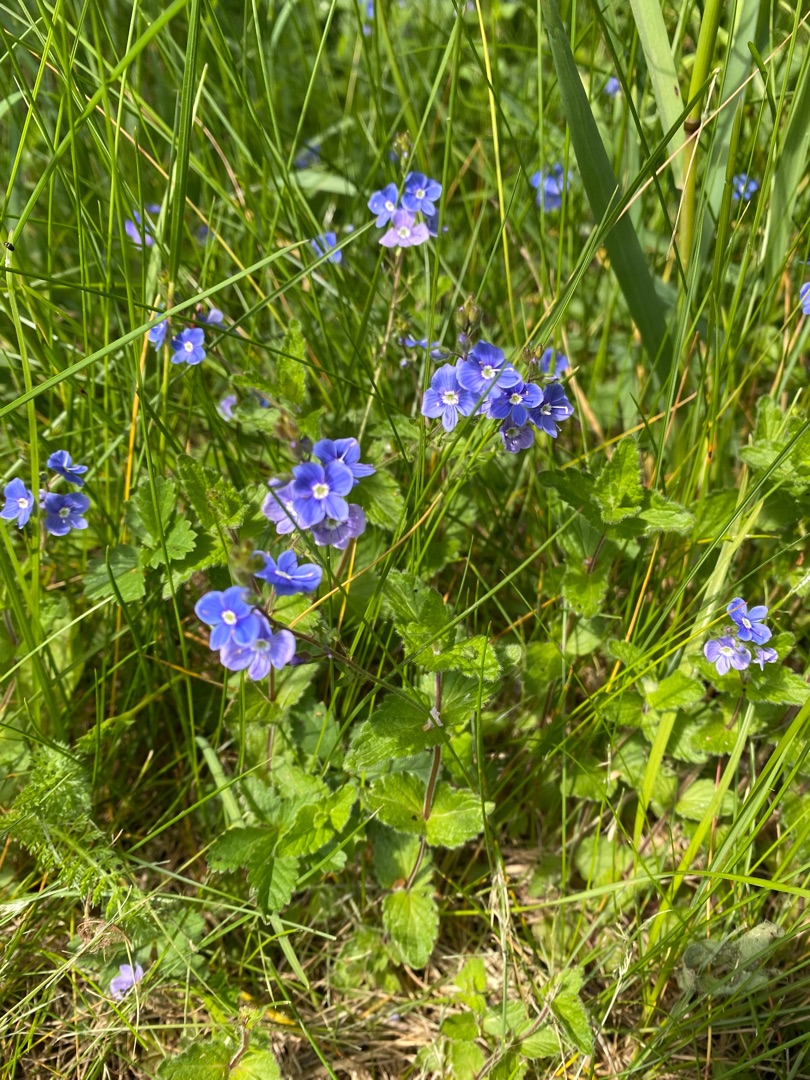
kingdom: Plantae
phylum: Tracheophyta
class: Magnoliopsida
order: Lamiales
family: Plantaginaceae
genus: Veronica
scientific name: Veronica chamaedrys
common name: Tveskægget ærenpris
